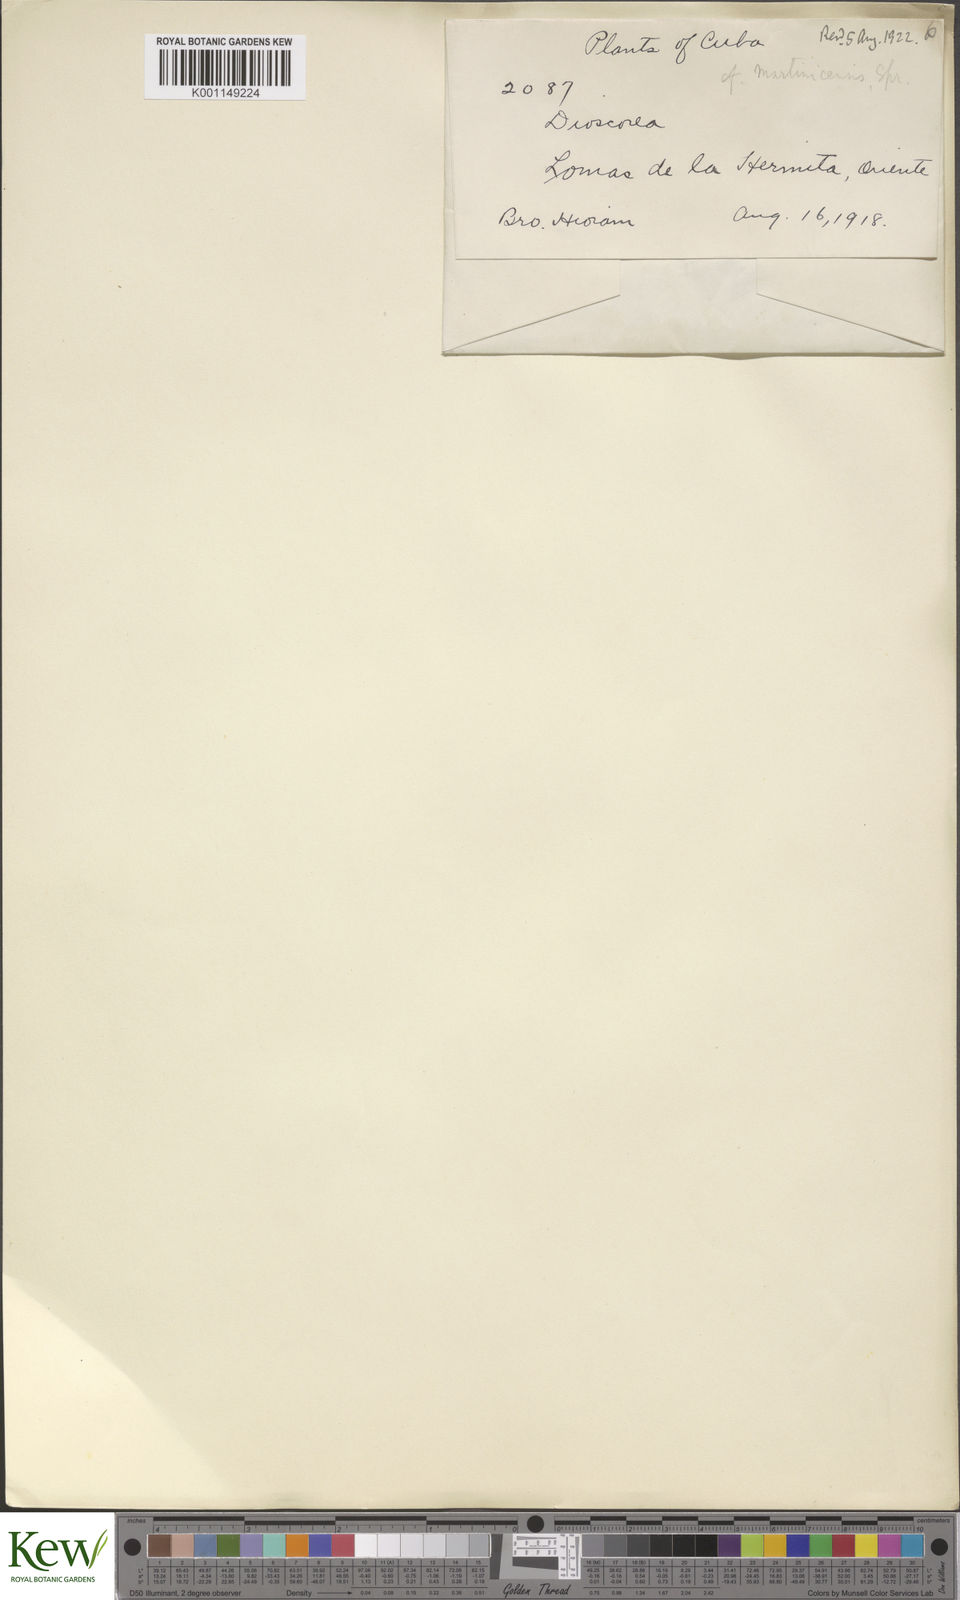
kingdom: Plantae
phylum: Tracheophyta
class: Liliopsida
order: Dioscoreales
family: Dioscoreaceae
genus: Dioscorea
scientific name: Dioscorea wrightii
